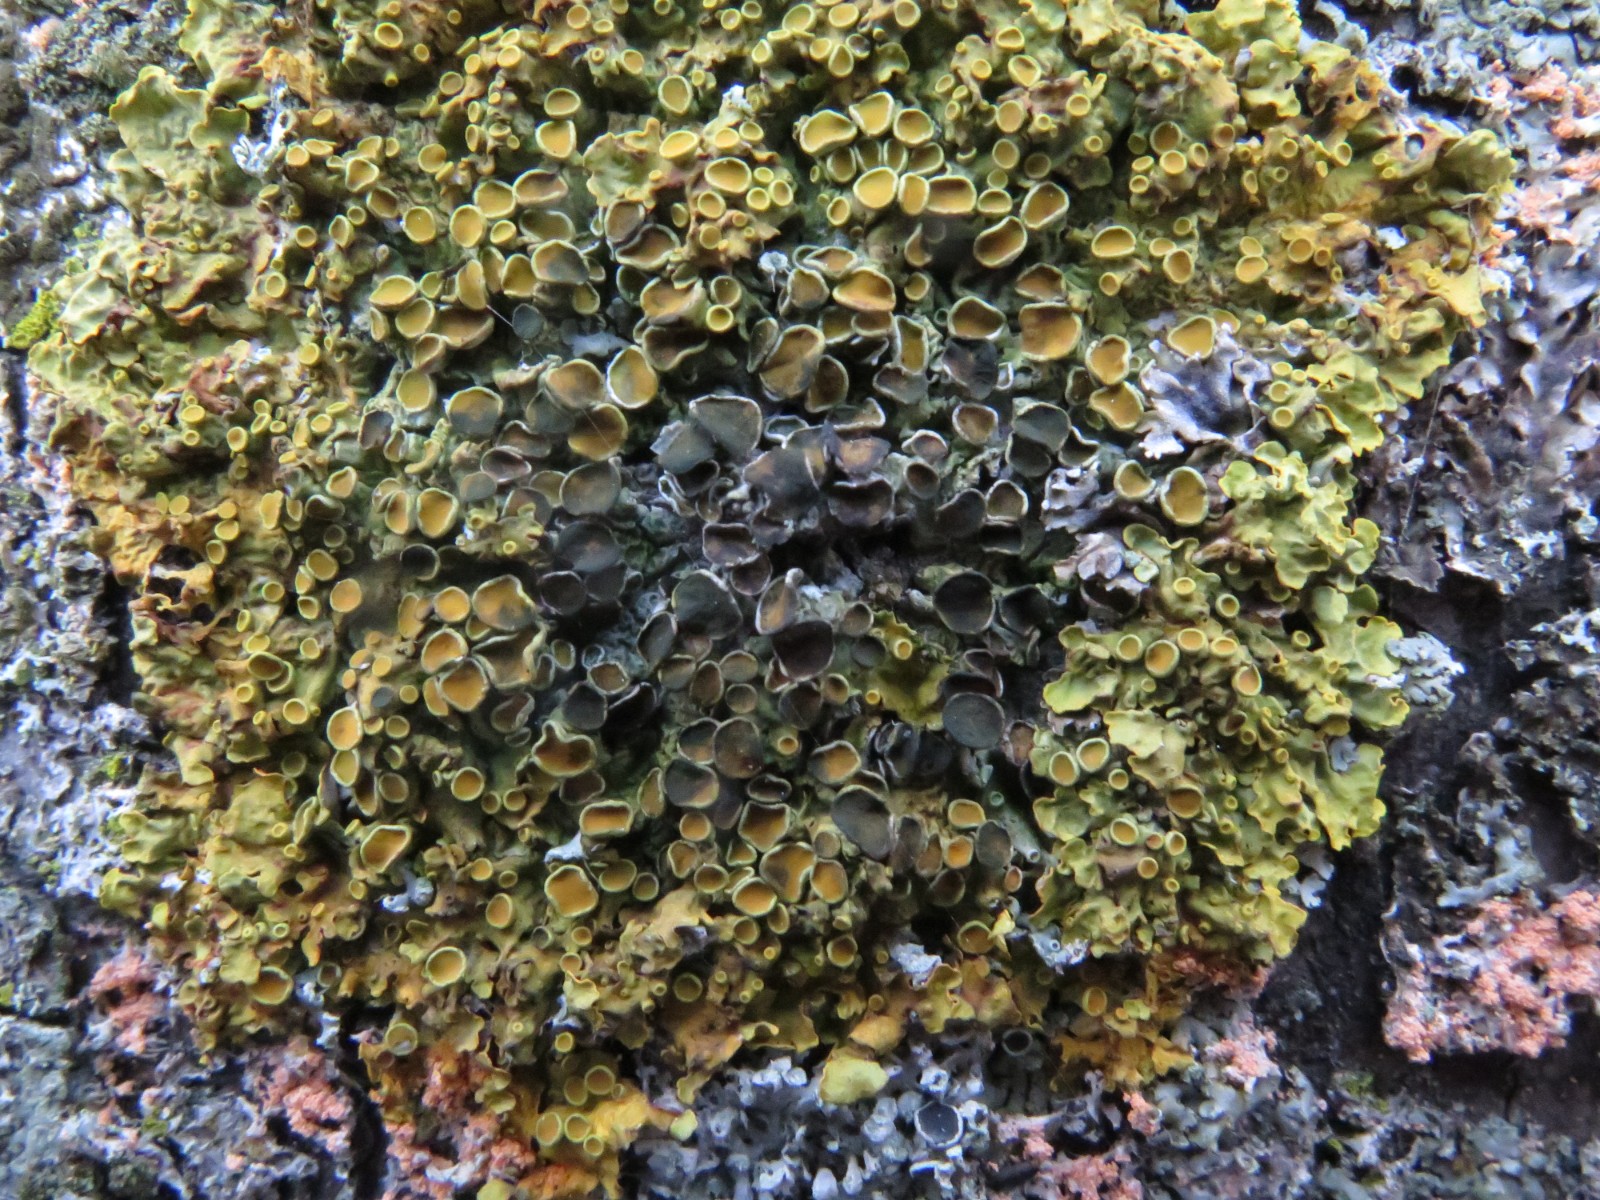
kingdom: Fungi
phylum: Ascomycota
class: Dothideomycetes
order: Mycosphaerellales
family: Teratosphaeriaceae
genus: Xanthoriicola
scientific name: Xanthoriicola physciae
